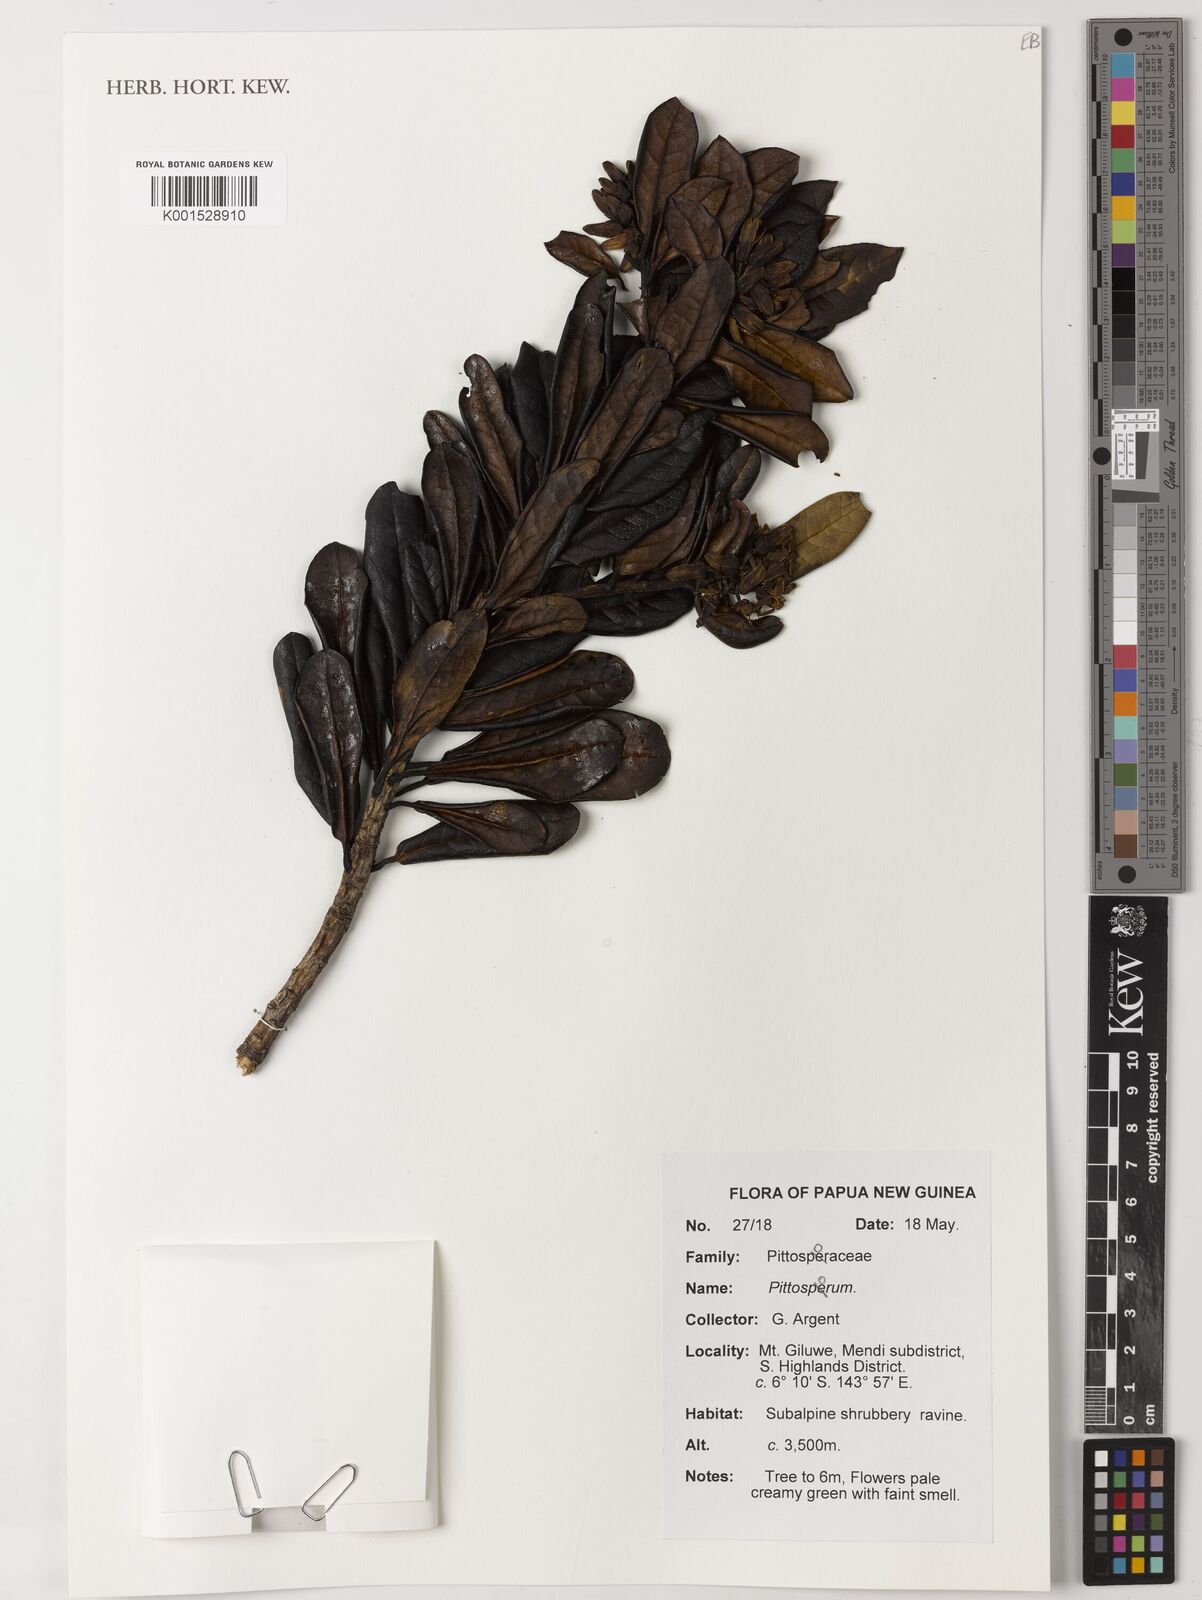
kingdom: Plantae
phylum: Tracheophyta
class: Magnoliopsida
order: Apiales
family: Pittosporaceae
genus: Pittosporum
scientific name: Pittosporum
